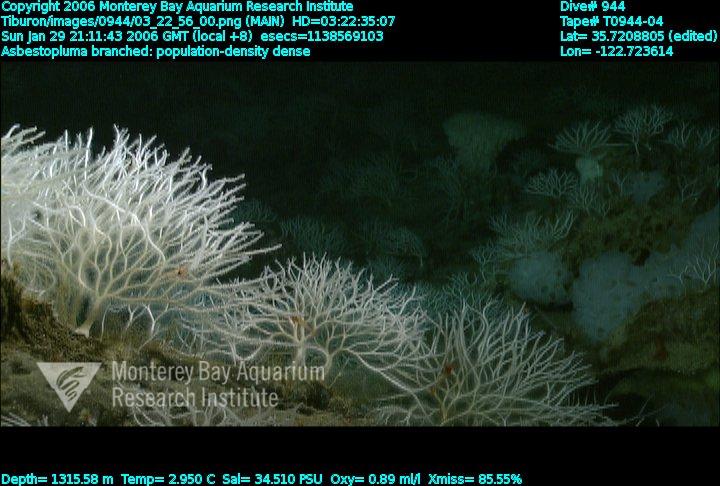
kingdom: Animalia
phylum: Porifera
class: Demospongiae
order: Poecilosclerida
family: Cladorhizidae
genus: Asbestopluma
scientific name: Asbestopluma monticola
